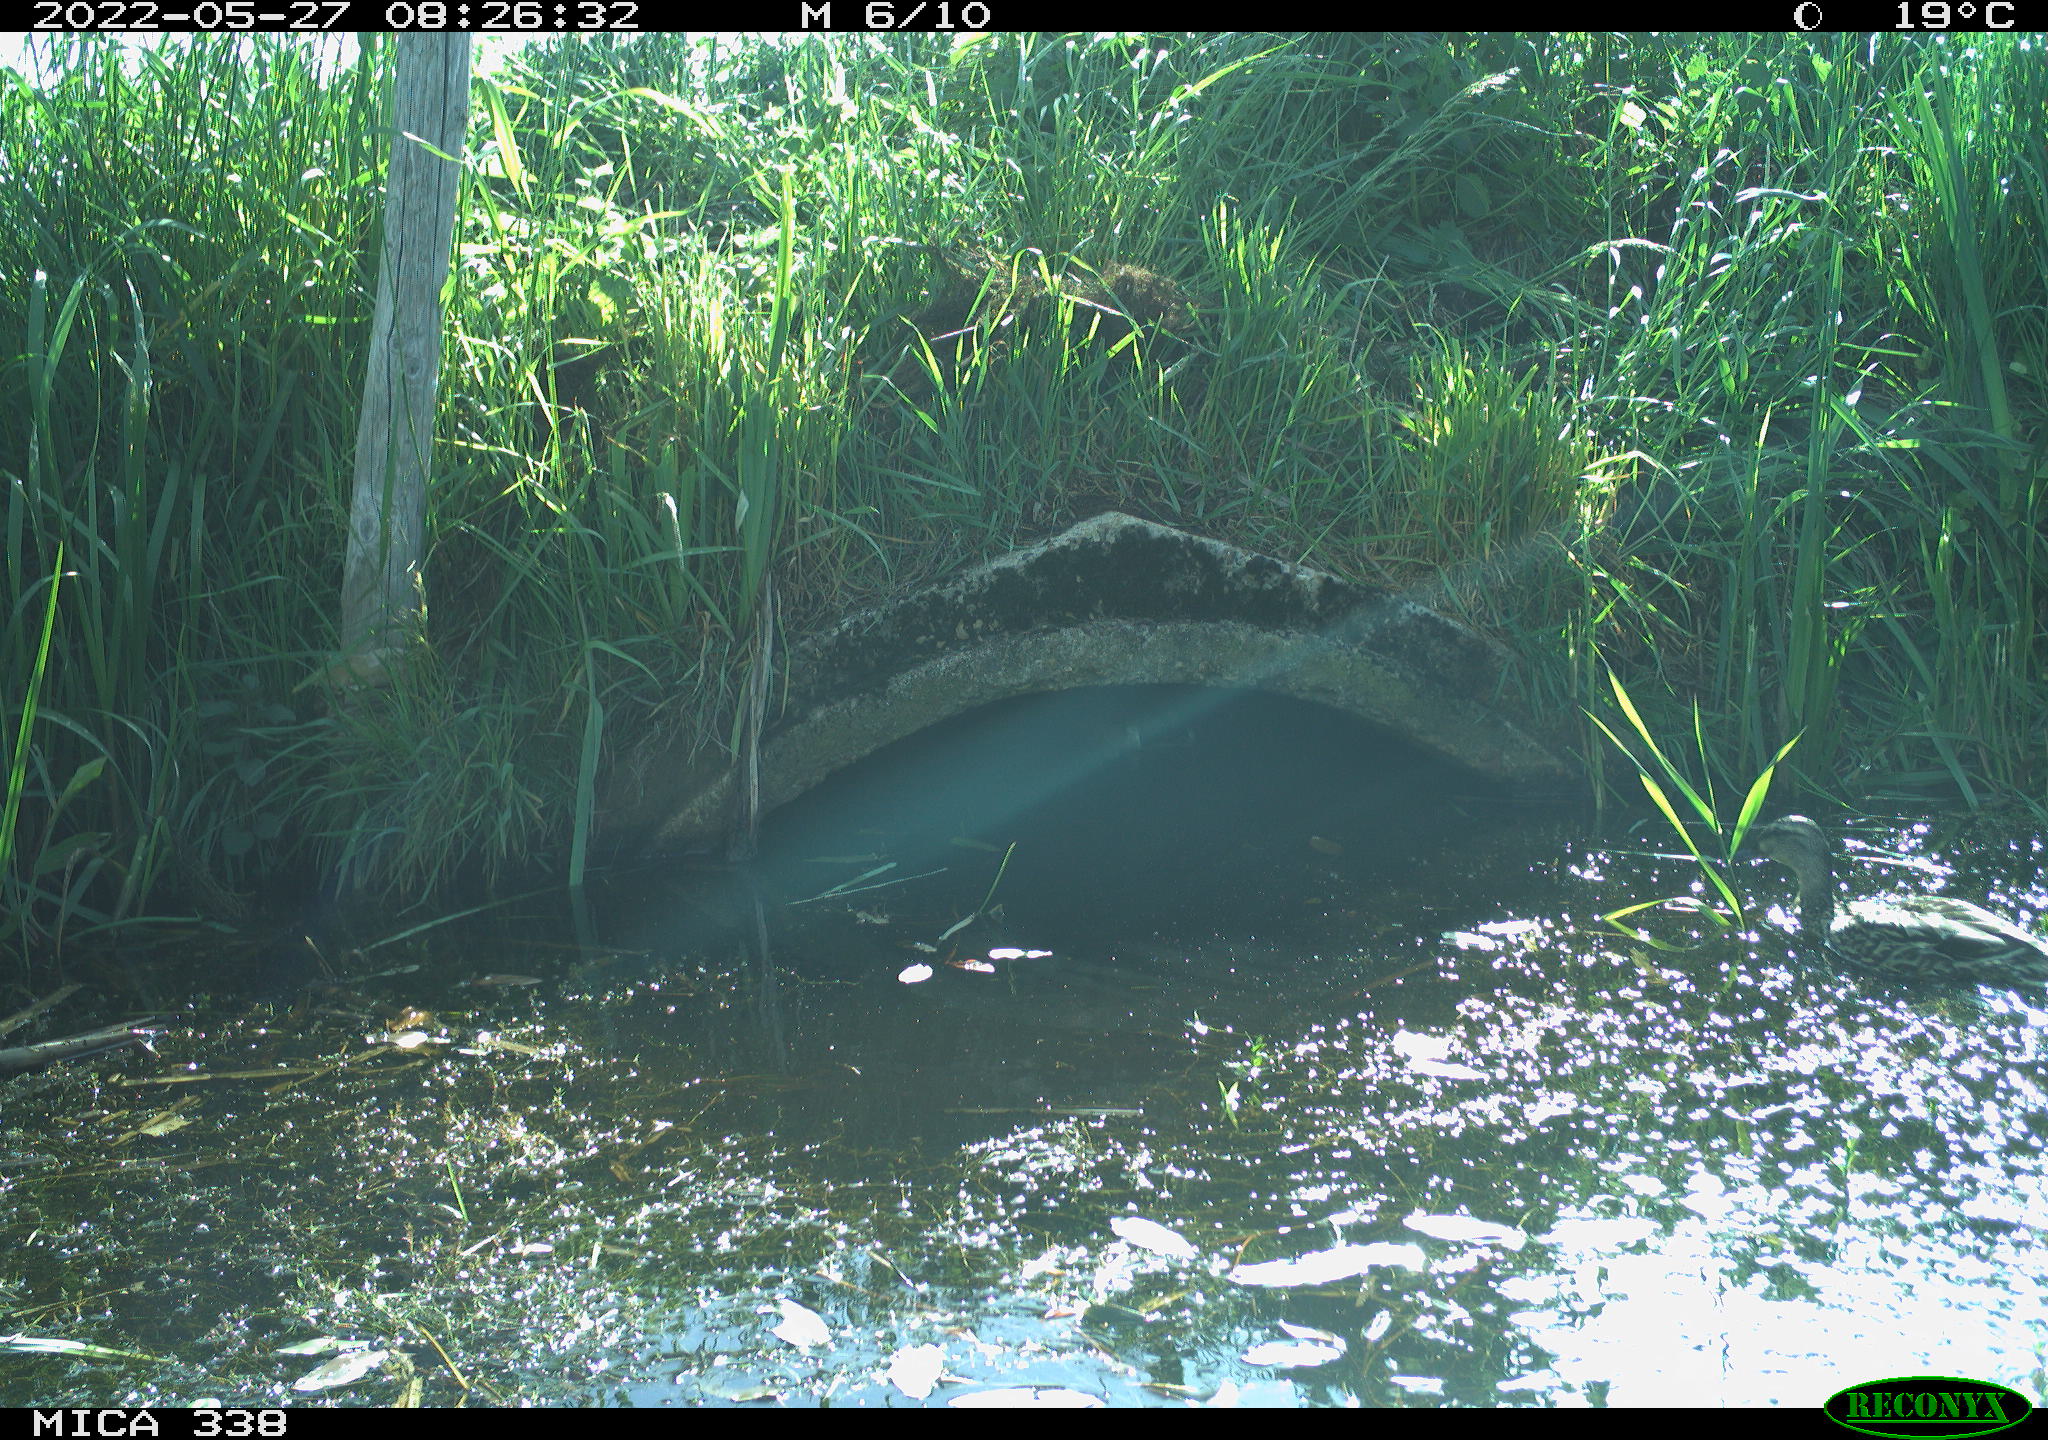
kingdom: Animalia
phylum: Chordata
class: Aves
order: Anseriformes
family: Anatidae
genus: Anas
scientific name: Anas platyrhynchos
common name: Mallard
